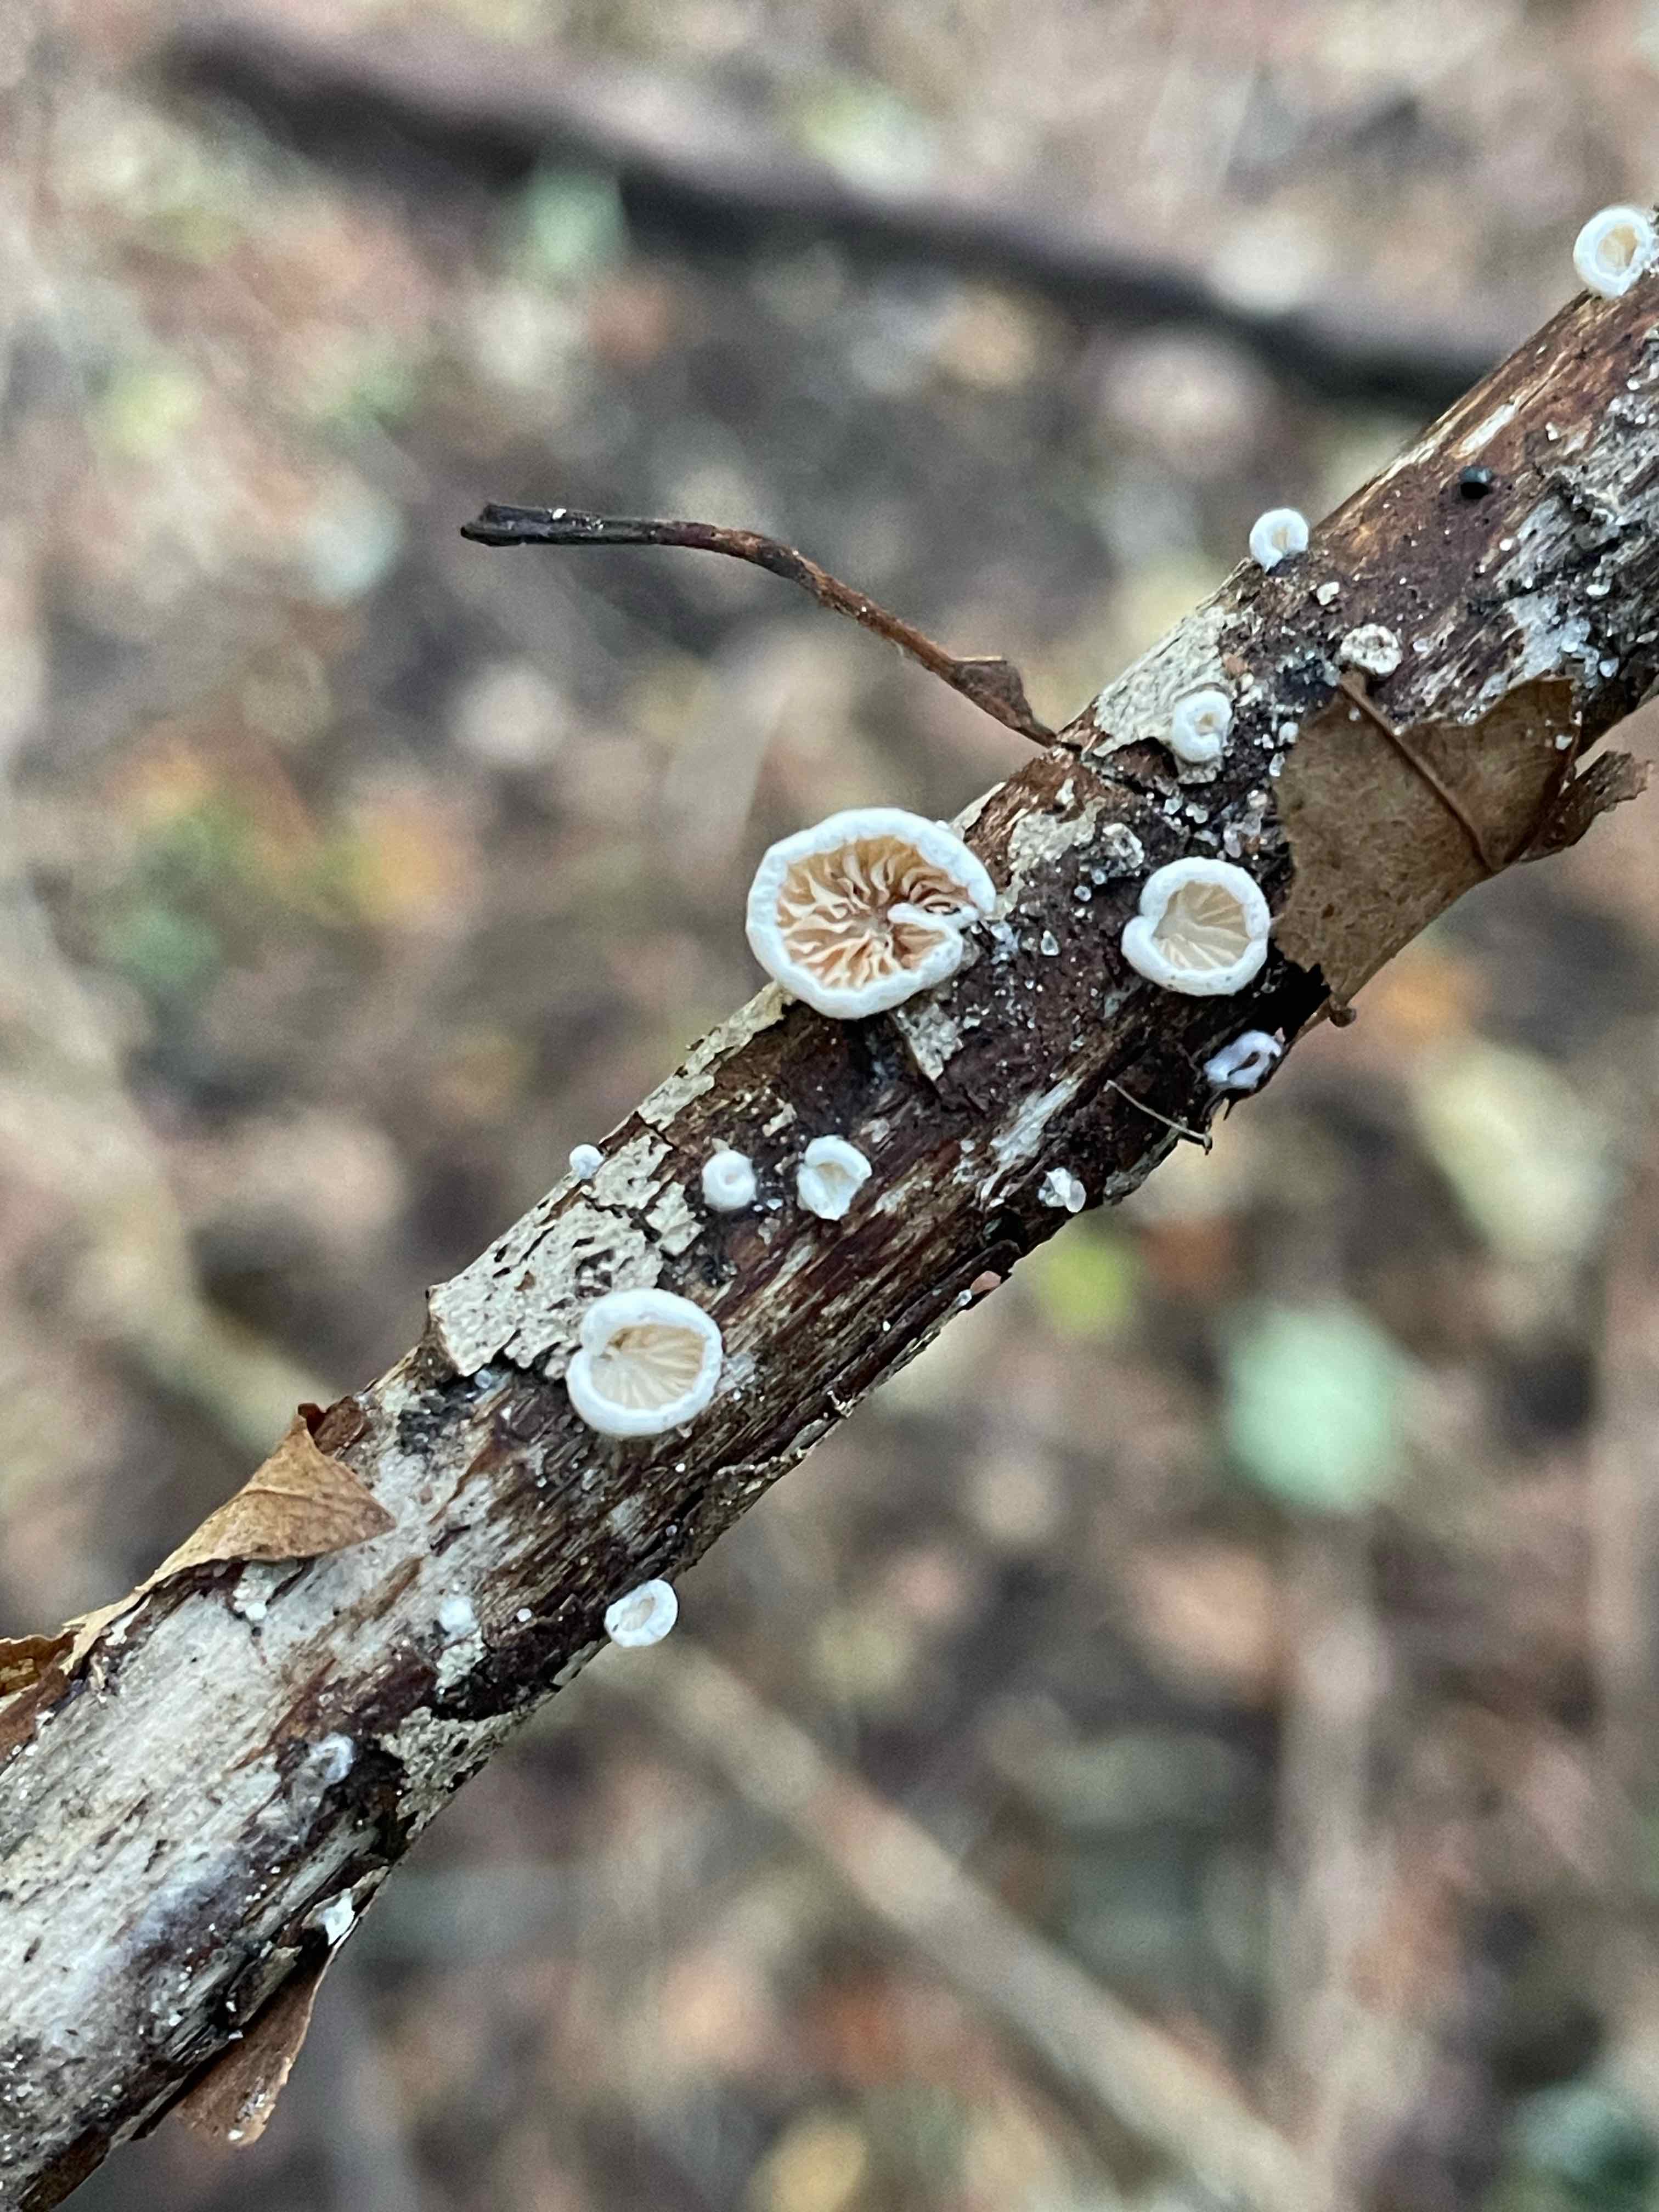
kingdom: Fungi
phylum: Basidiomycota
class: Agaricomycetes
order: Agaricales
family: Crepidotaceae
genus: Crepidotus
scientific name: Crepidotus
